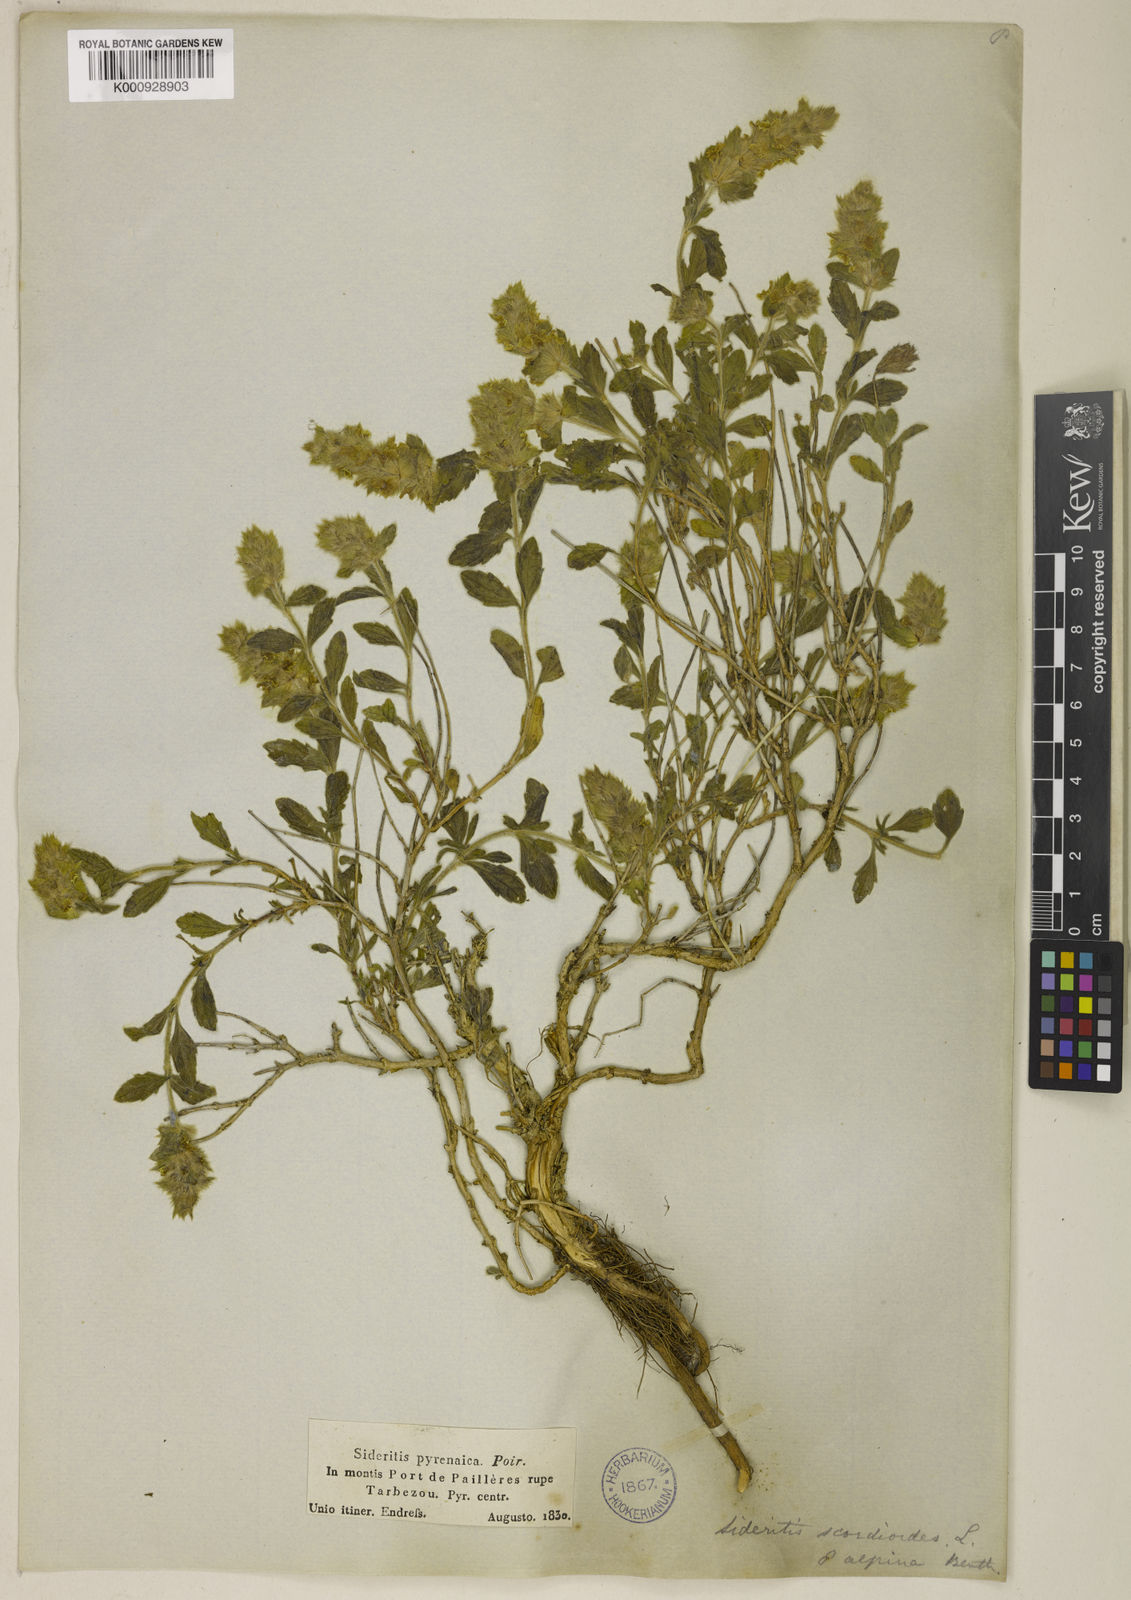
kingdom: Plantae
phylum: Tracheophyta
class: Magnoliopsida
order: Lamiales
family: Lamiaceae
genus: Sideritis
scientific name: Sideritis hyssopifolia
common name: Mountain tea
